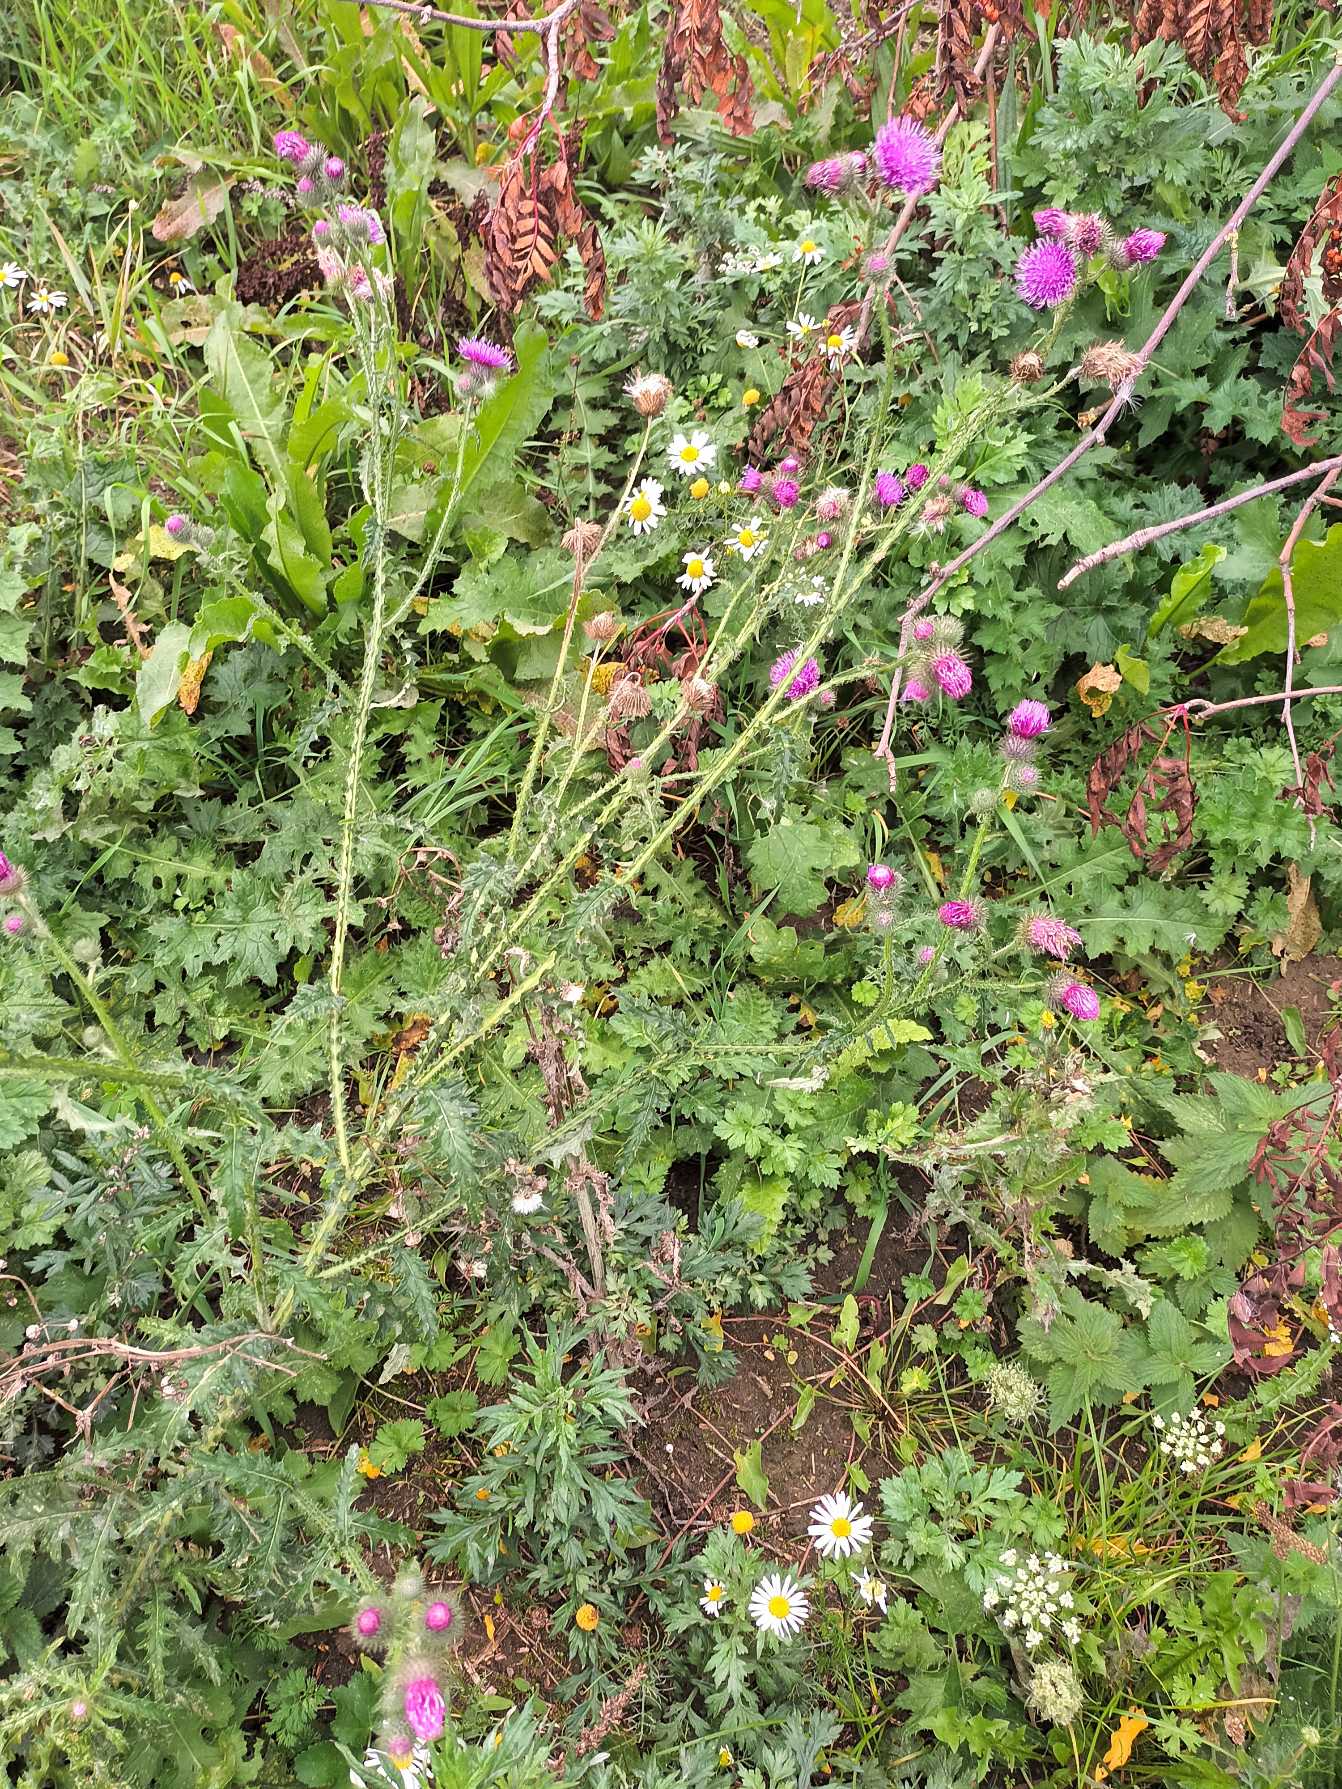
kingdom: Plantae
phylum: Tracheophyta
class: Magnoliopsida
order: Asterales
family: Asteraceae
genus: Carduus
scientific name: Carduus crispus
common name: Kruset tidsel
